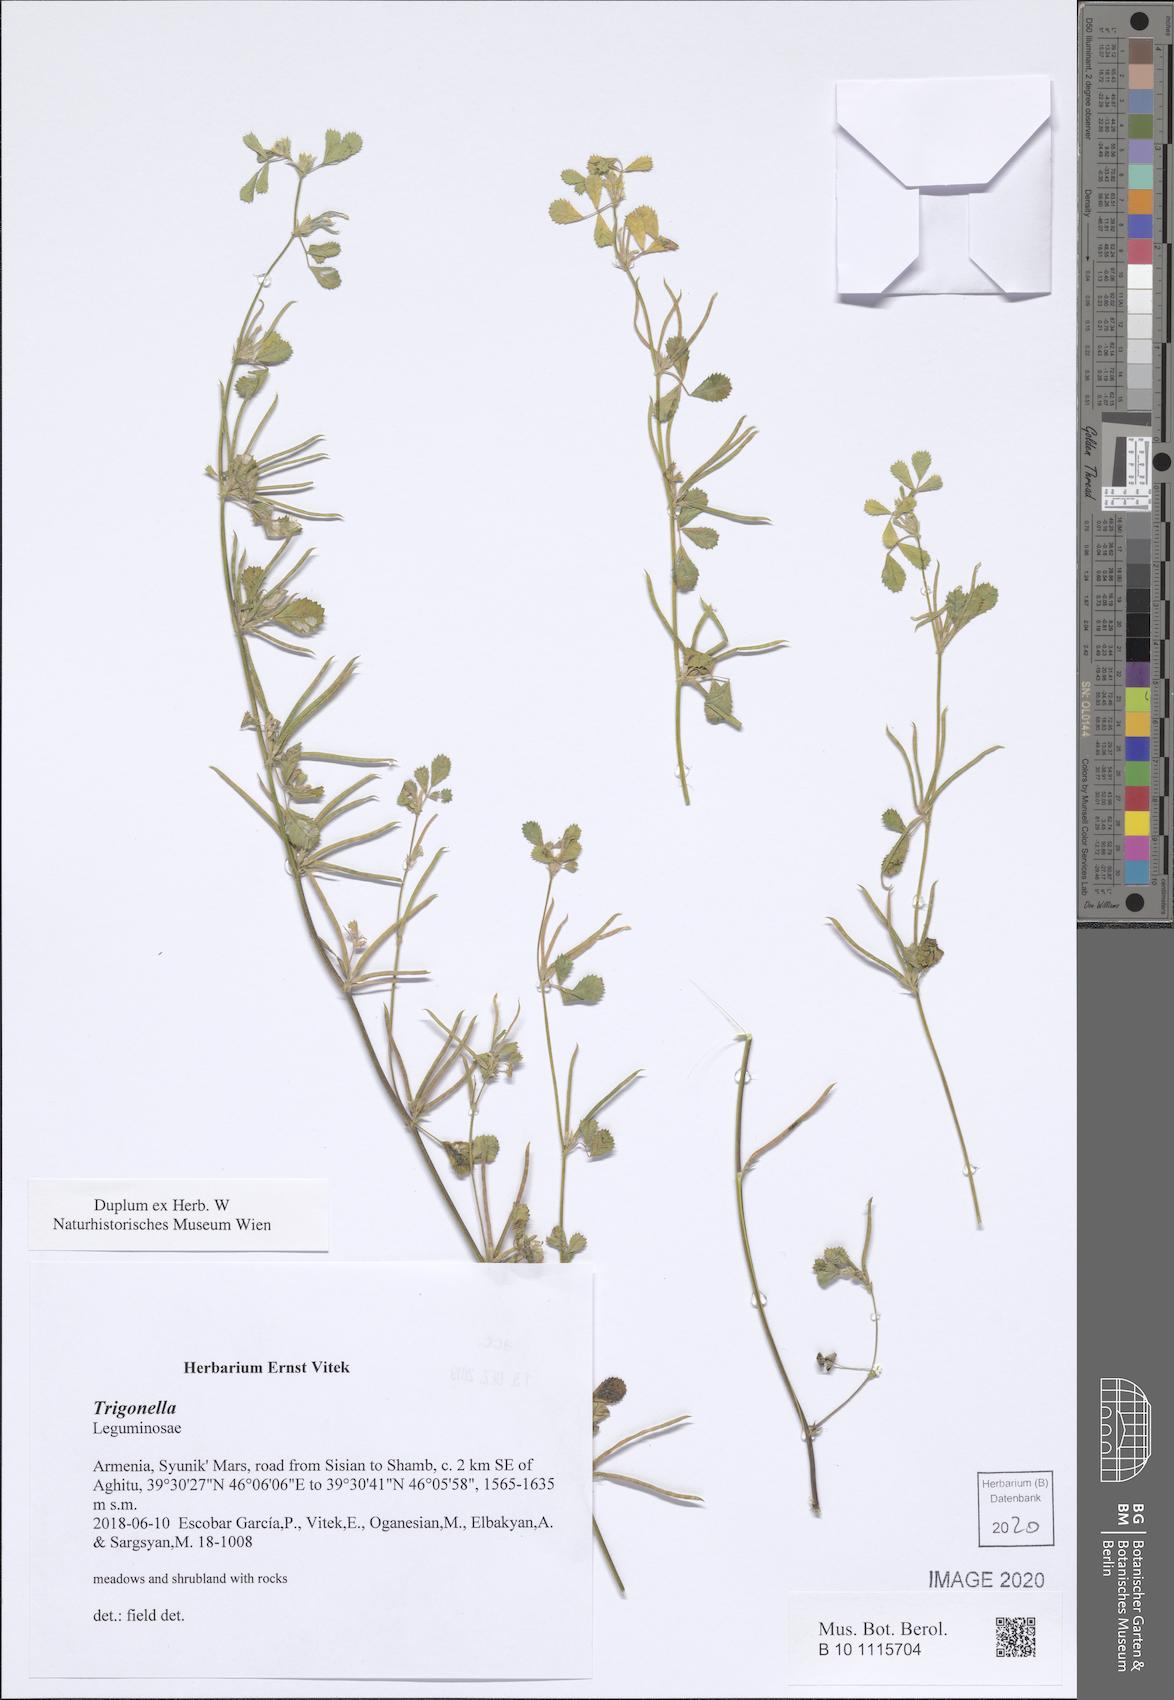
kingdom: Plantae
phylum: Tracheophyta
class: Magnoliopsida
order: Fabales
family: Fabaceae
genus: Trigonella
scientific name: Trigonella
